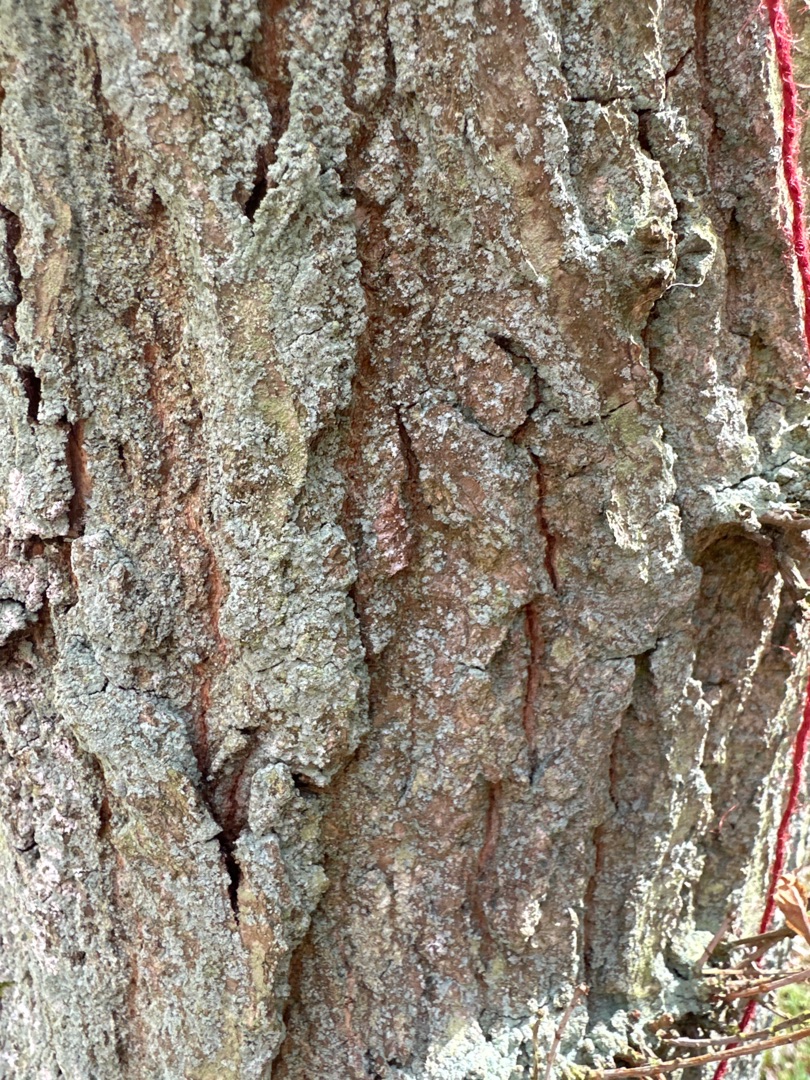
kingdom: Fungi
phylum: Ascomycota
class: Lecanoromycetes
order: Lecanorales
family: Stereocaulaceae
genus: Lepraria
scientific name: Lepraria
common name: Støvlav
